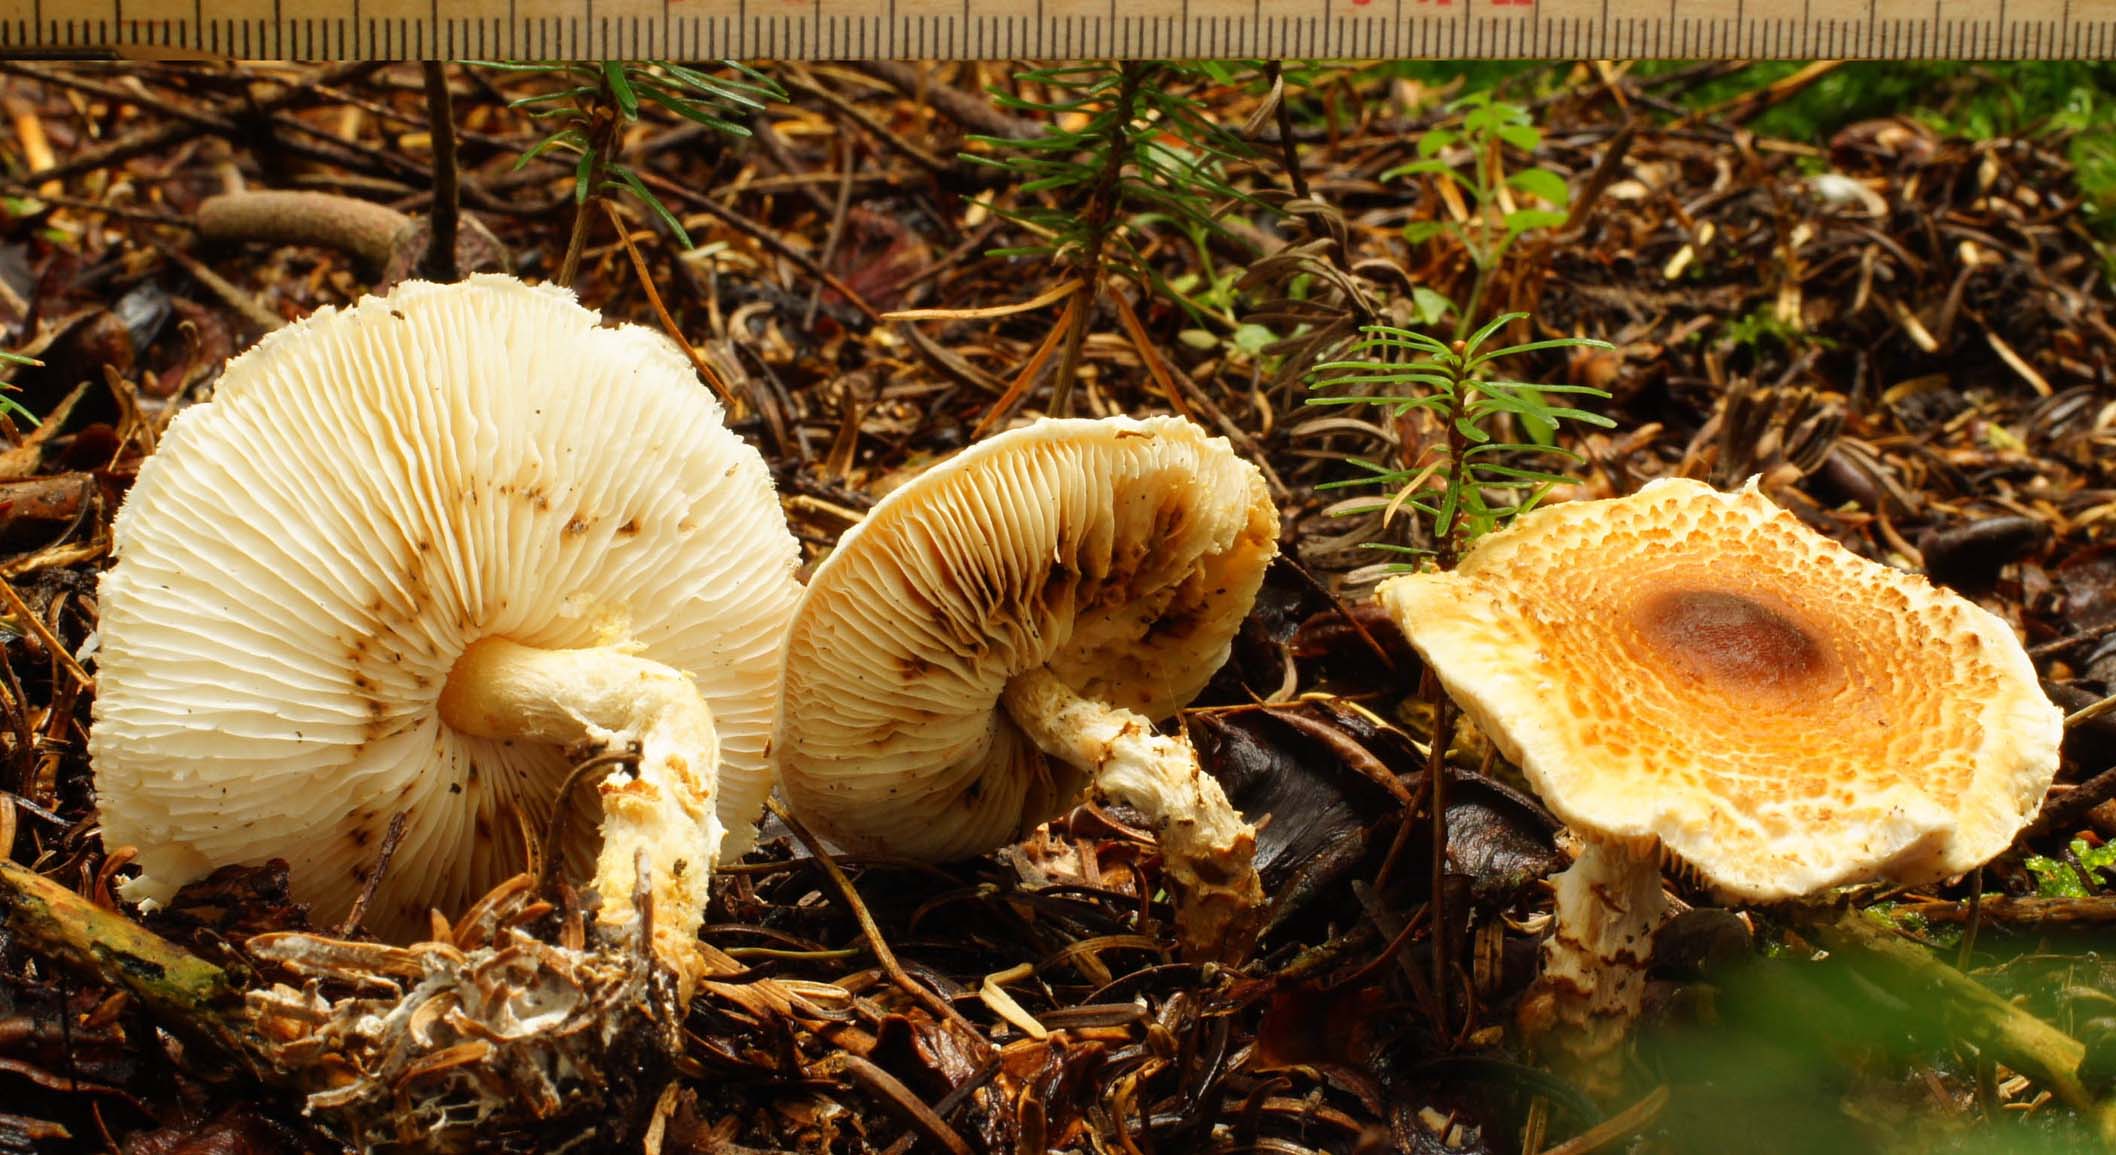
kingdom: Fungi
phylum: Basidiomycota
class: Agaricomycetes
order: Agaricales
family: Agaricaceae
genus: Lepiota
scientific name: Lepiota magnispora
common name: gulfnugget parasolhat
